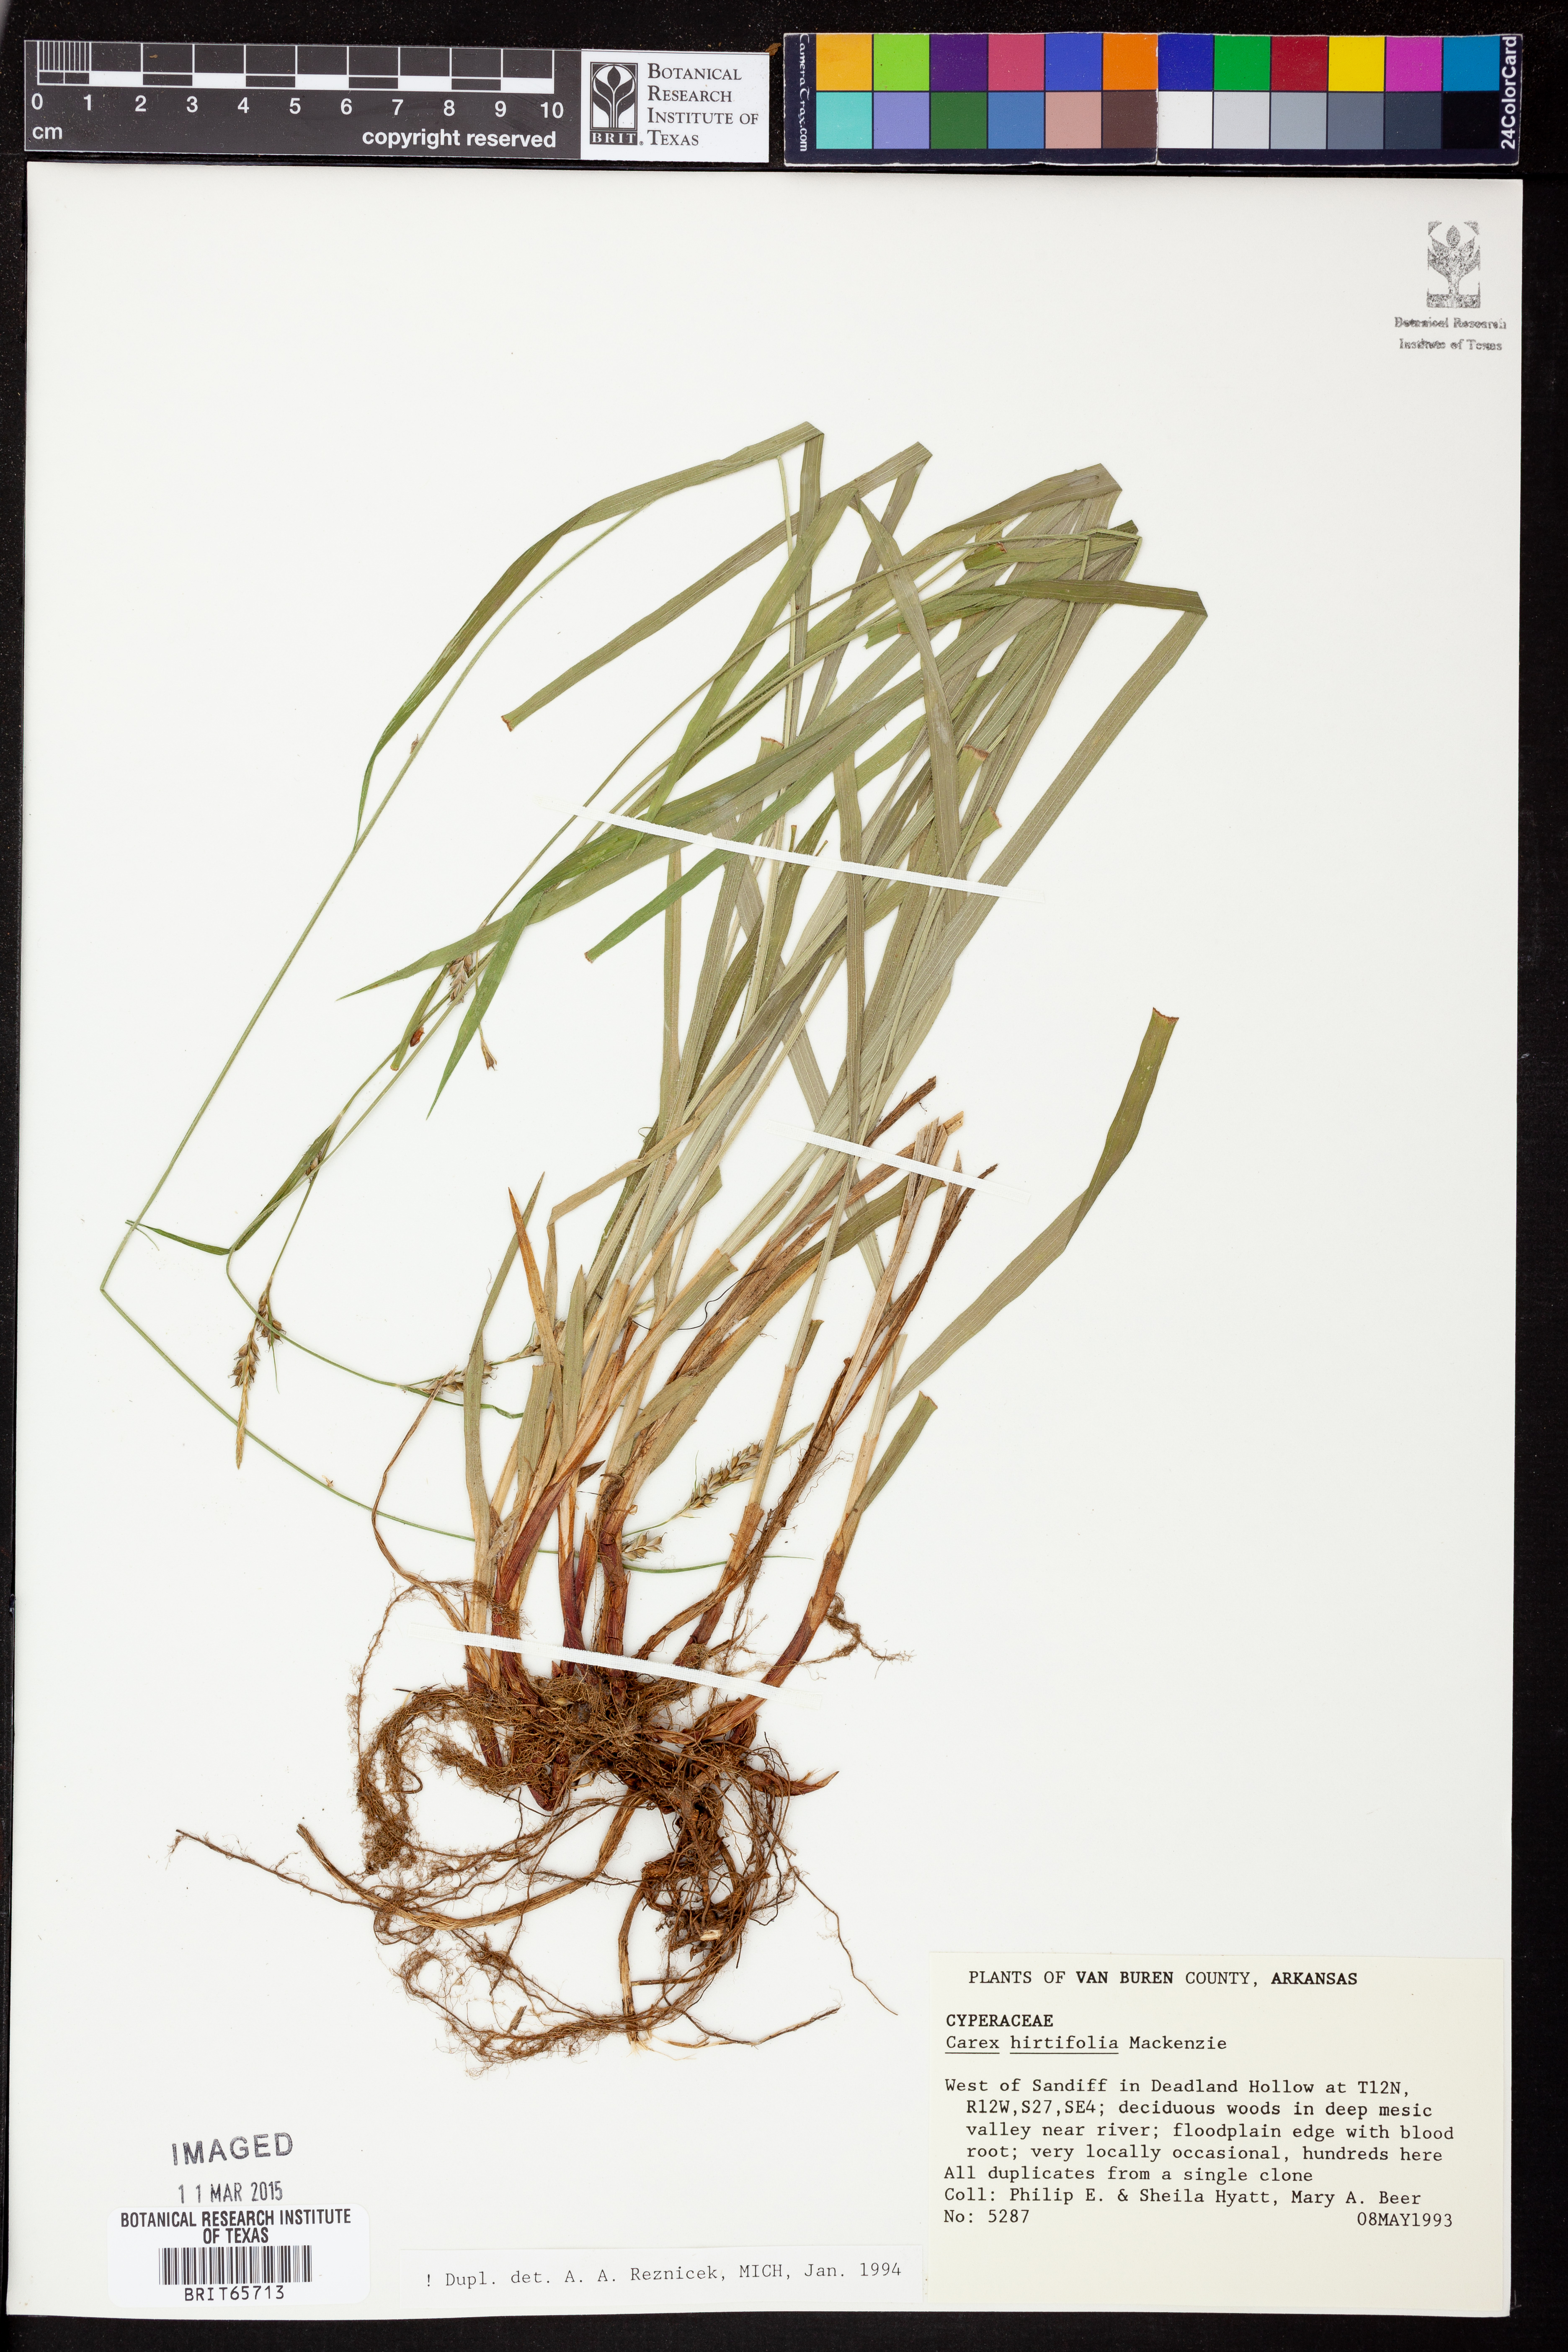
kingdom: Plantae
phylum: Tracheophyta
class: Liliopsida
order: Poales
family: Cyperaceae
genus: Carex
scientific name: Carex hirtifolia
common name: Hairy sedge
